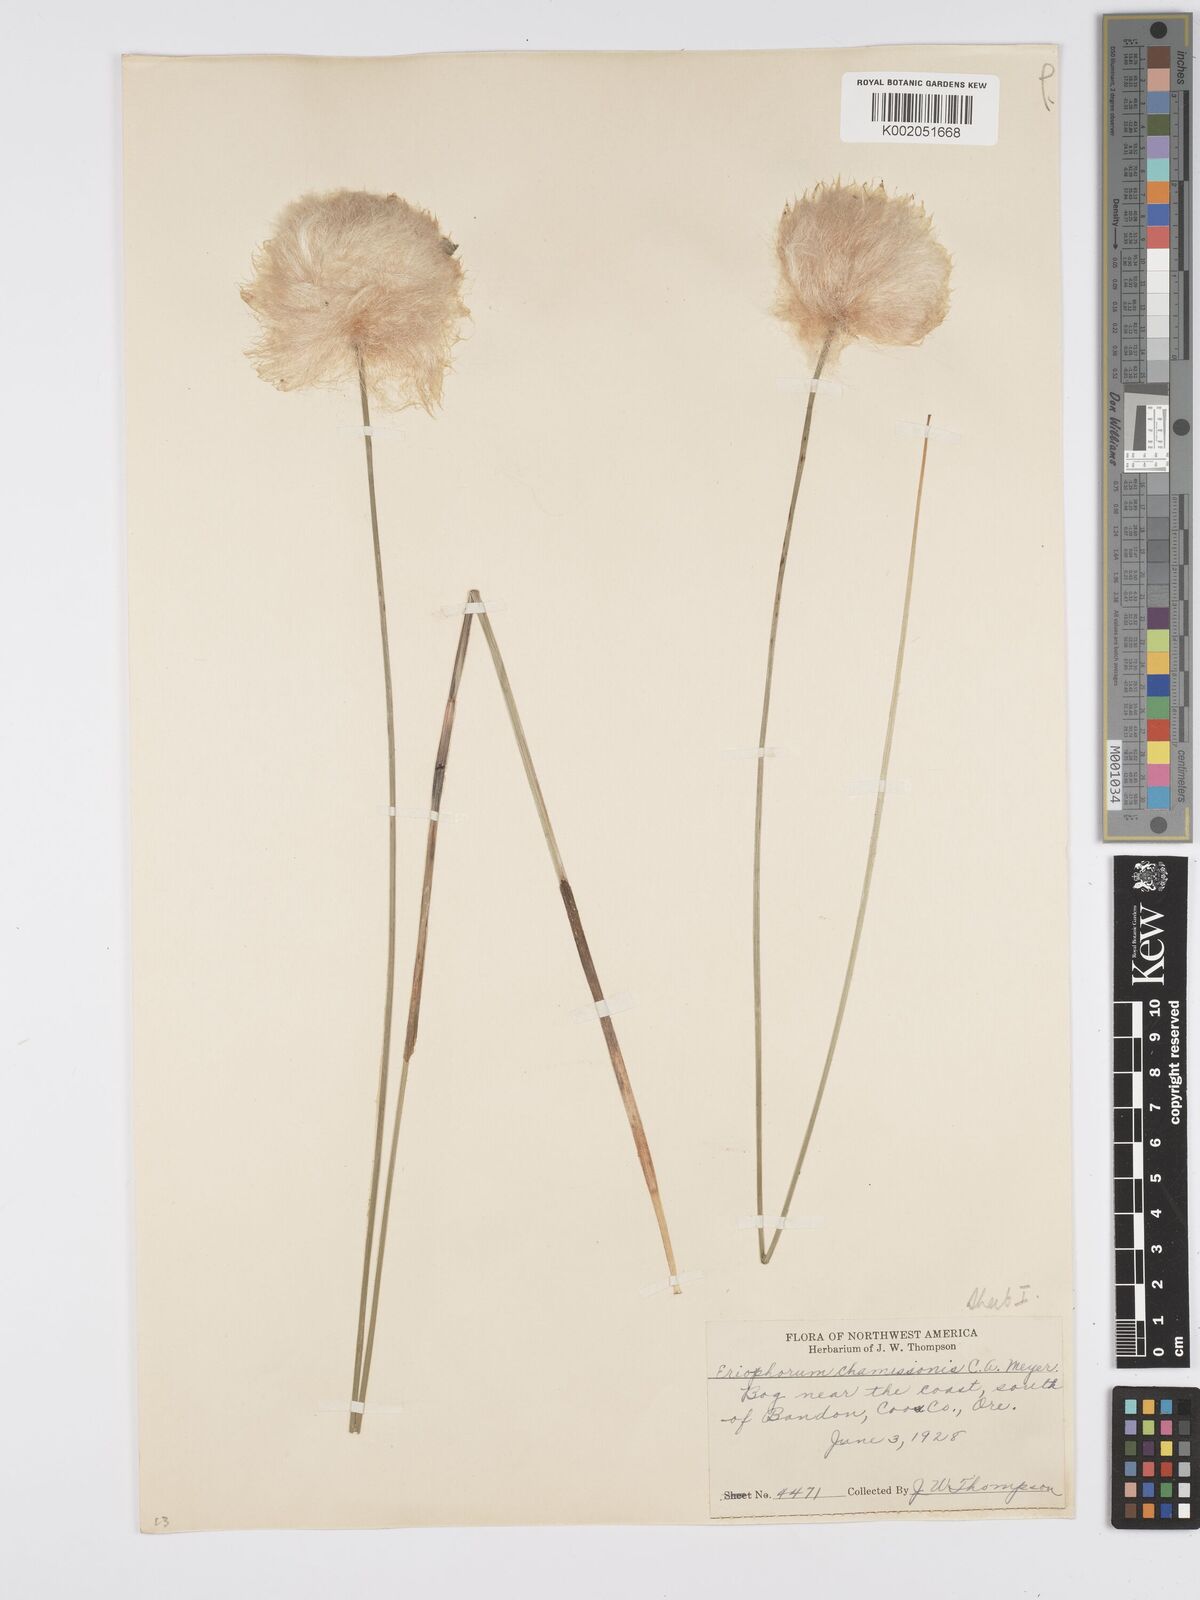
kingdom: Plantae
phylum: Tracheophyta
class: Liliopsida
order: Poales
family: Cyperaceae
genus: Eriophorum
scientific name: Eriophorum chamissonis
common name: Chamisso's cottongrass
